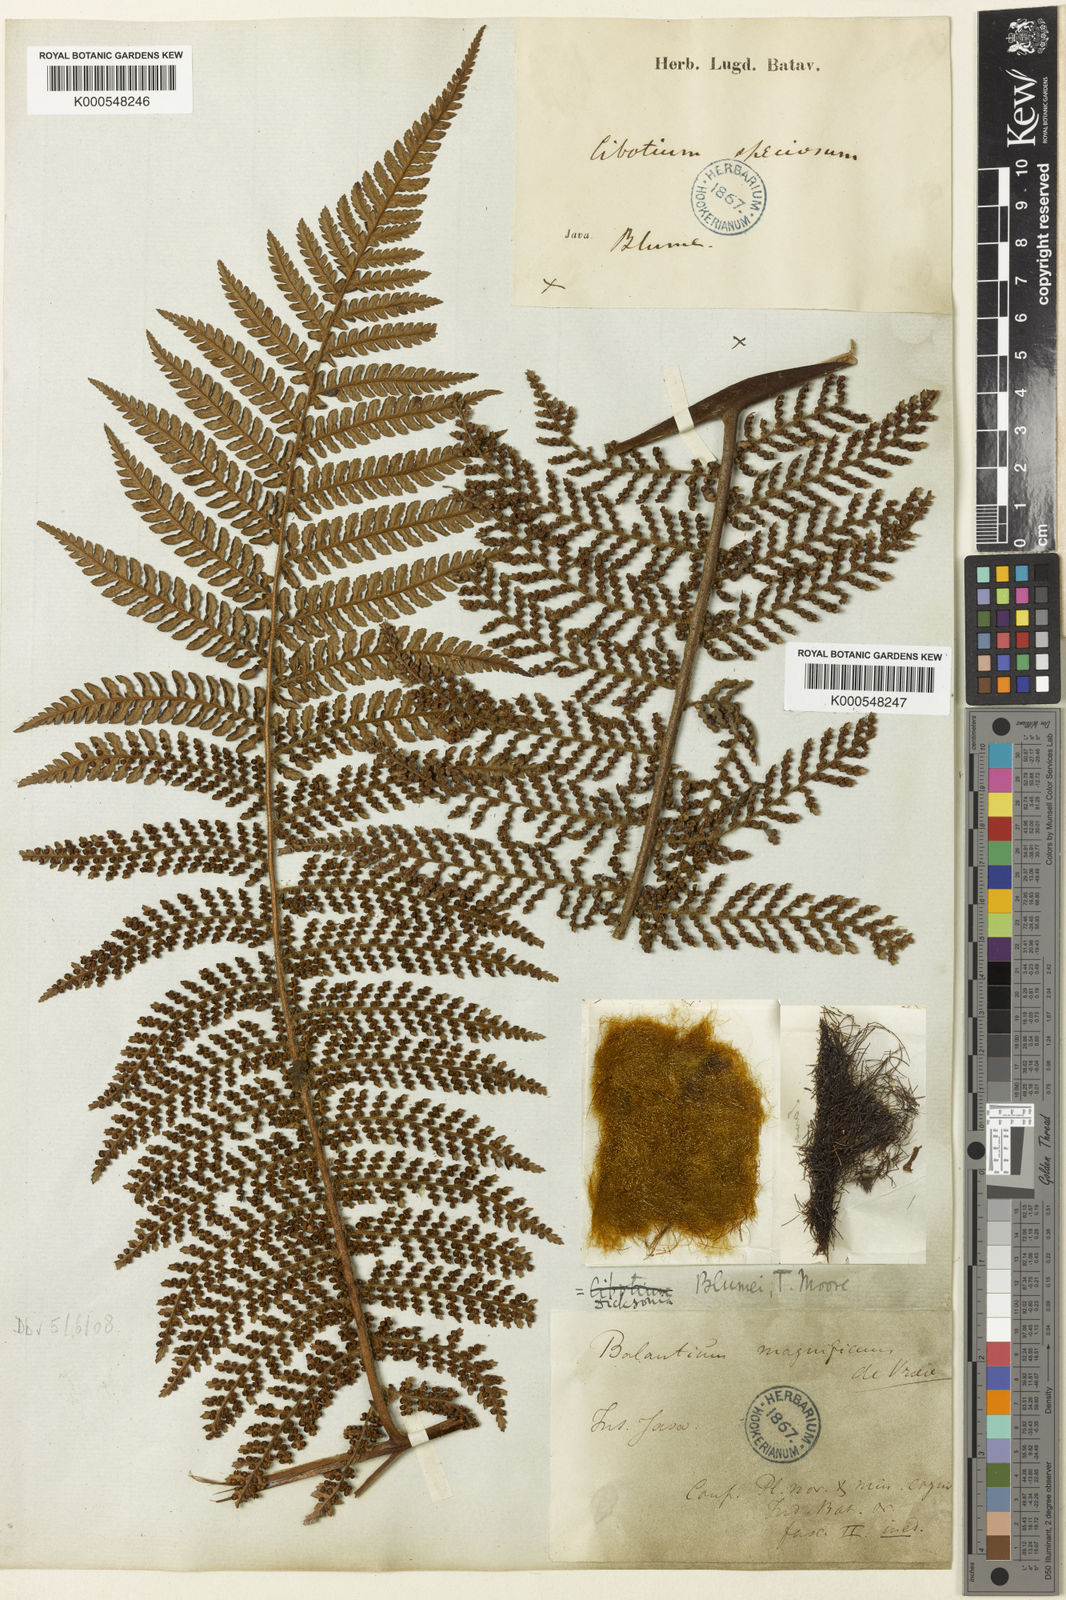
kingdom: Plantae
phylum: Tracheophyta
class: Polypodiopsida
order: Cyatheales
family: Dicksoniaceae
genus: Dicksonia
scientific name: Dicksonia blumei
